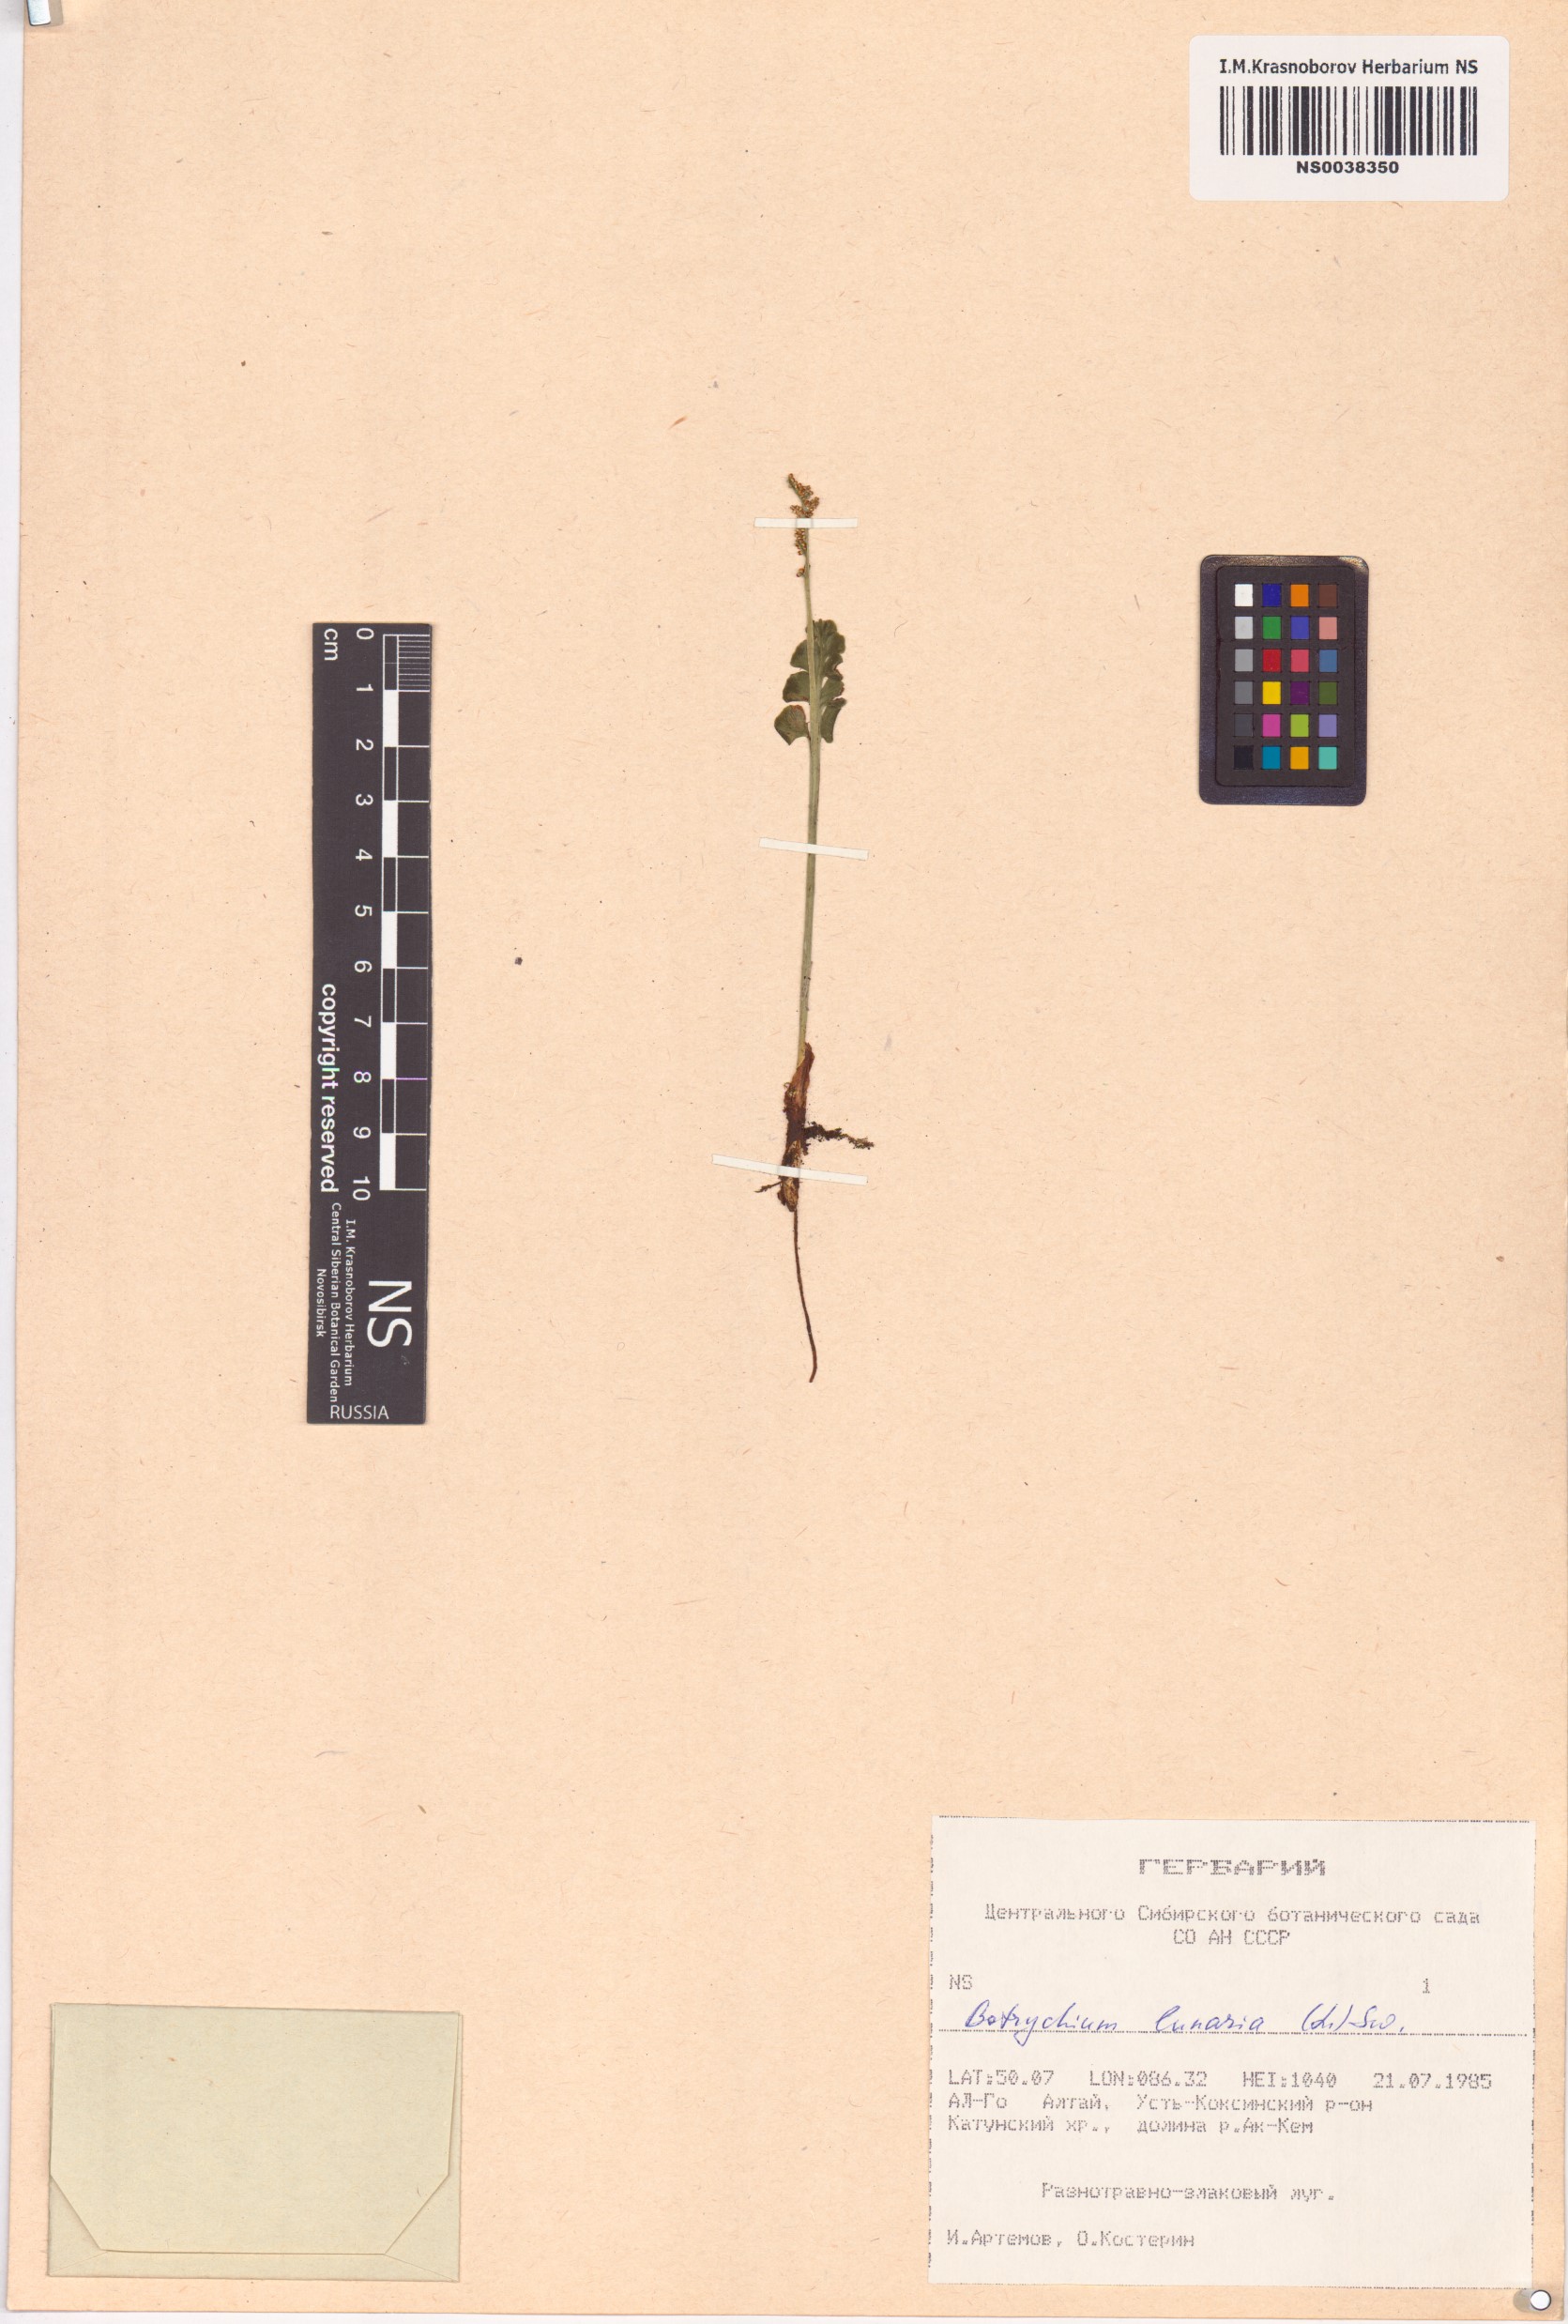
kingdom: Plantae
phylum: Tracheophyta
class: Polypodiopsida
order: Ophioglossales
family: Ophioglossaceae
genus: Botrychium
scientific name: Botrychium lunaria
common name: Moonwort
